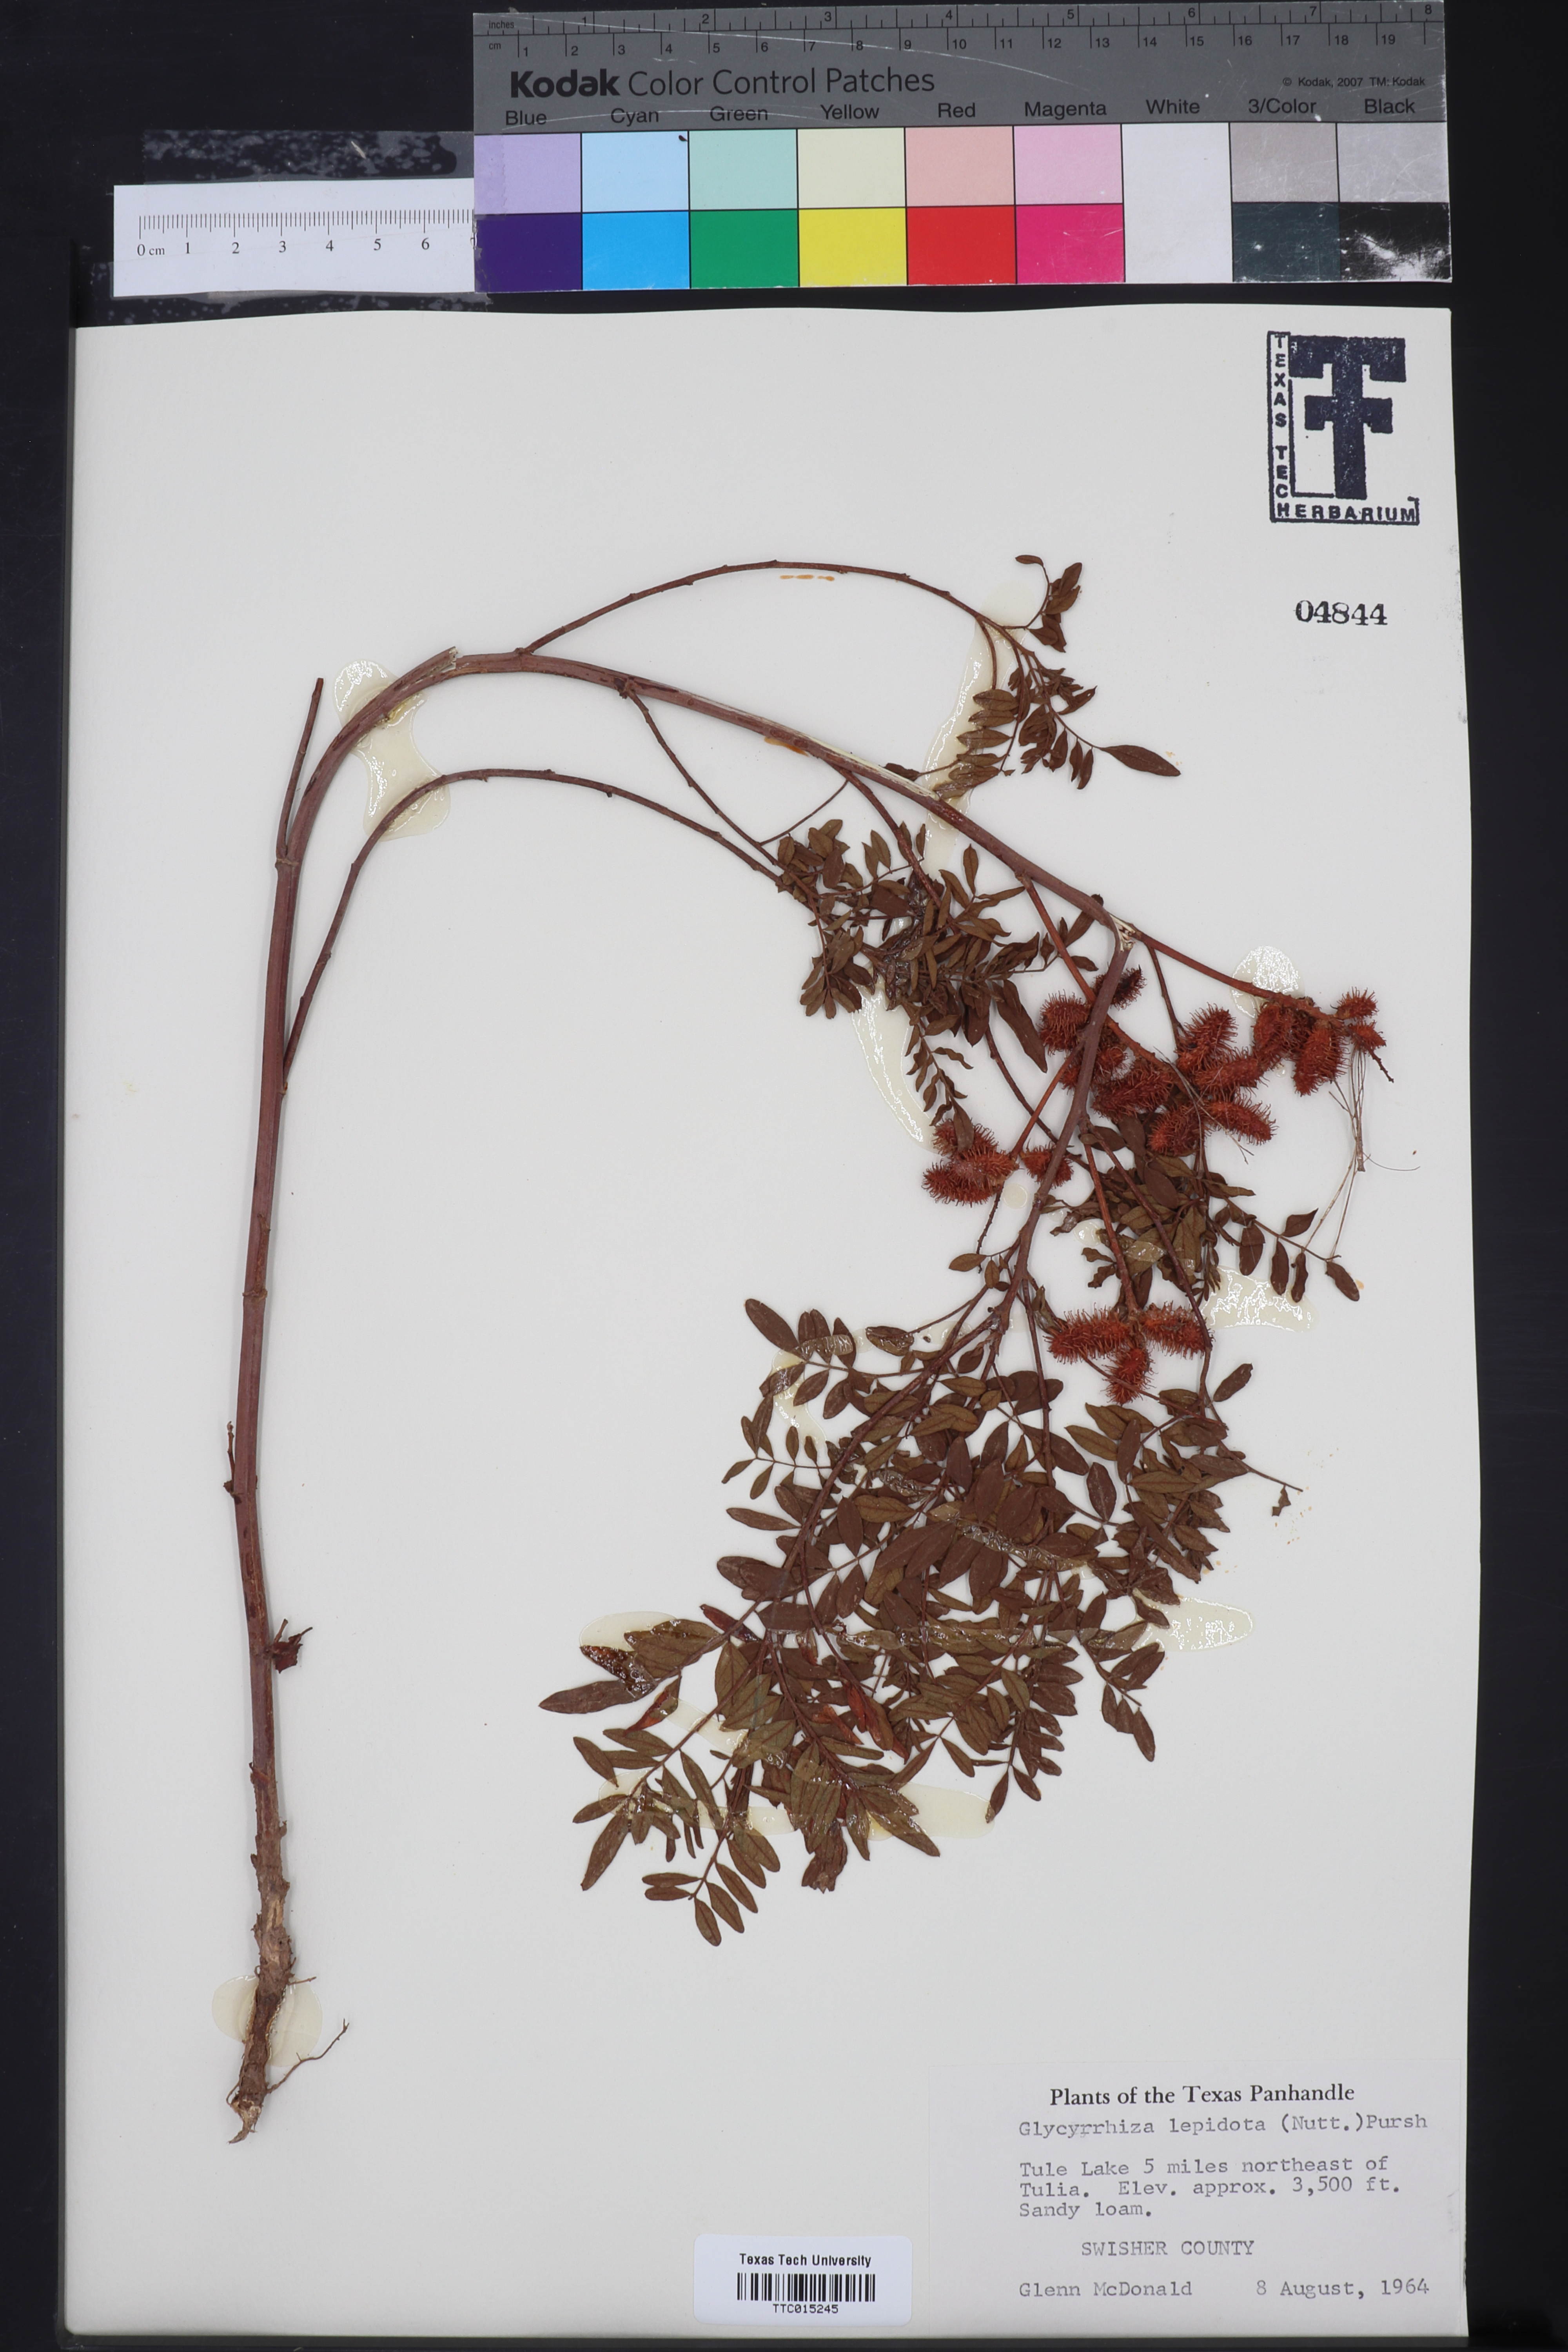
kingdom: Plantae
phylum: Tracheophyta
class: Magnoliopsida
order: Fabales
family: Fabaceae
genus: Glycyrrhiza
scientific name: Glycyrrhiza lepidota
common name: American liquorice
